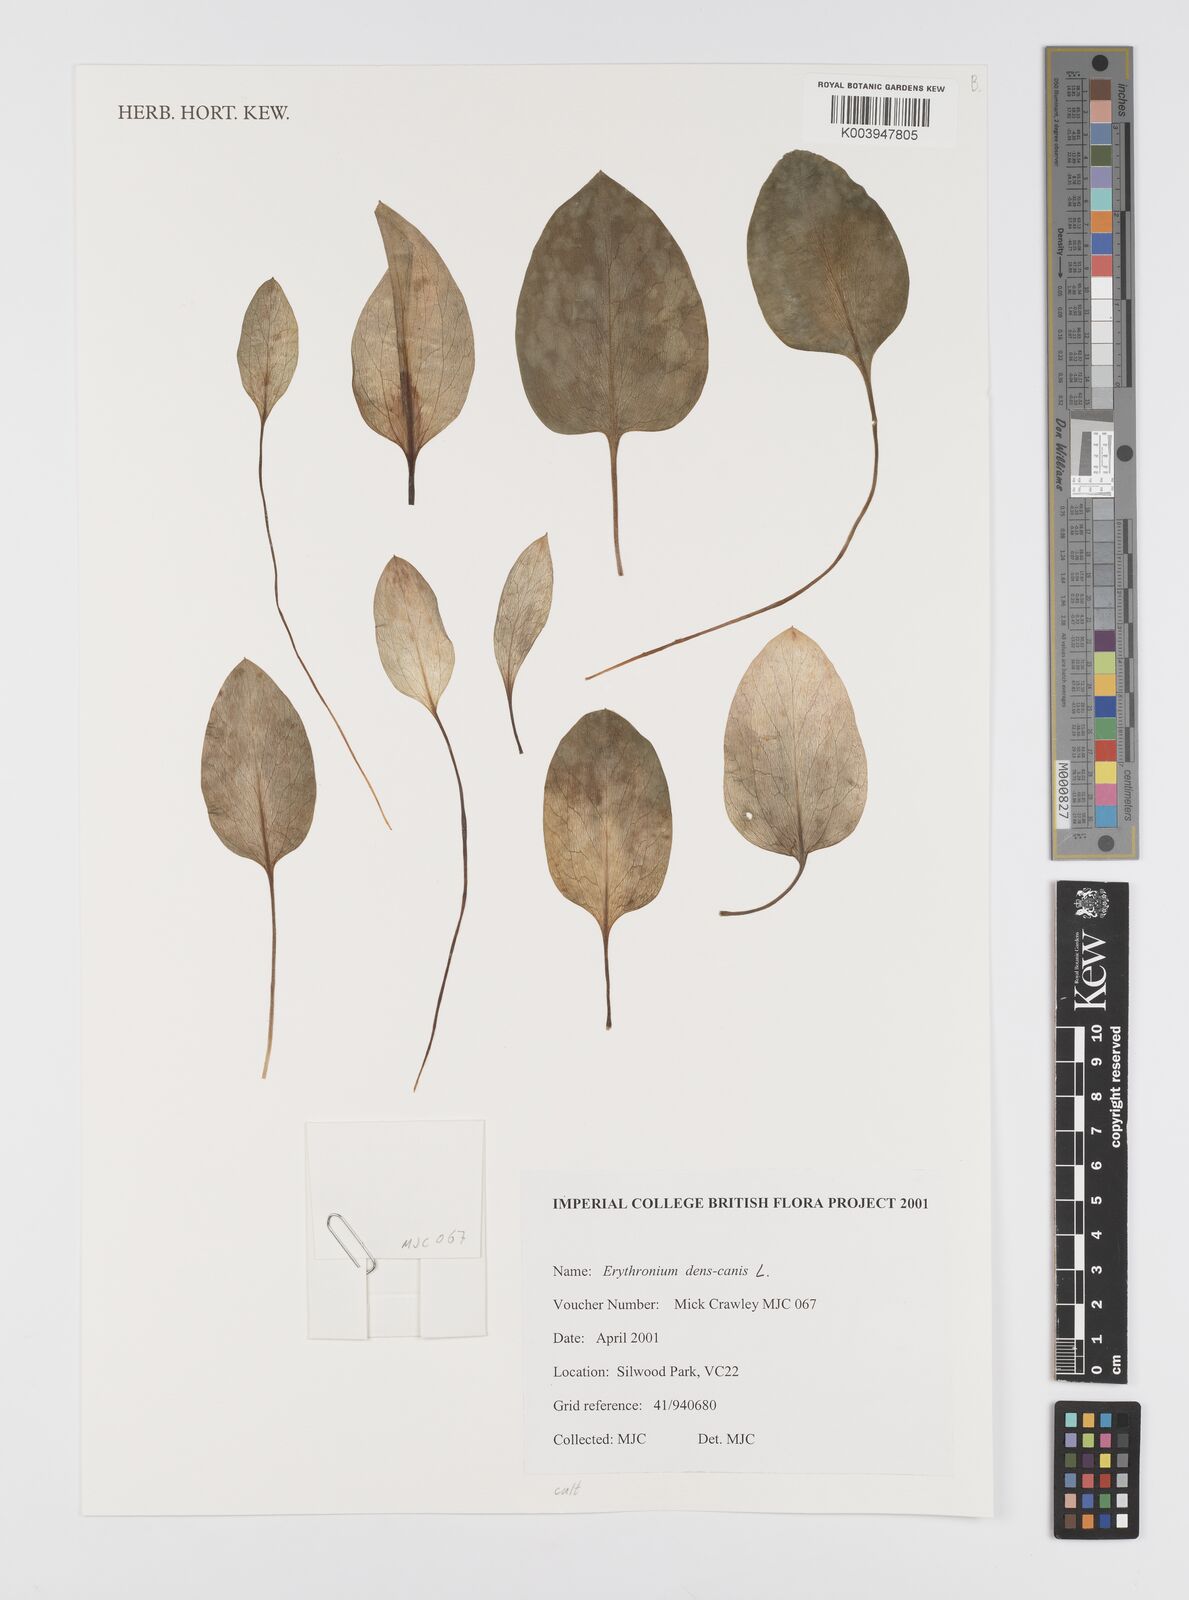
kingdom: Plantae
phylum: Tracheophyta
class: Liliopsida
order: Liliales
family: Liliaceae
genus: Erythronium
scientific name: Erythronium dens-canis
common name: Dog's-tooth-violet
